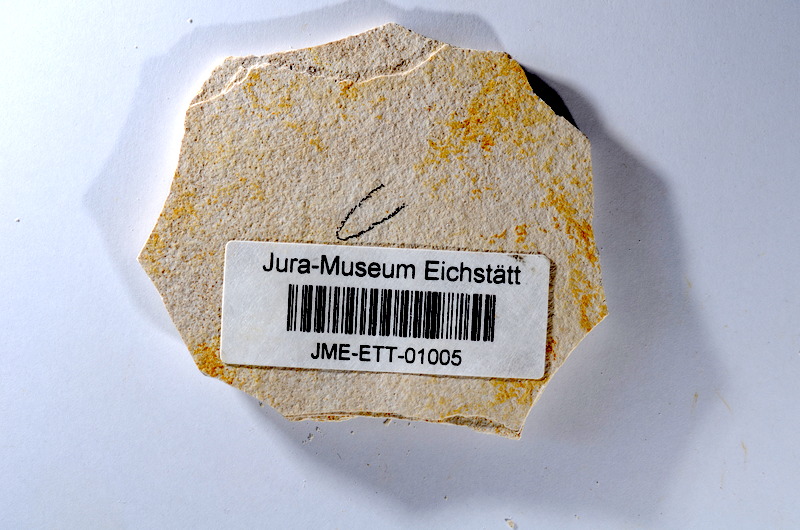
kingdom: Animalia
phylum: Chordata
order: Salmoniformes
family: Orthogonikleithridae
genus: Orthogonikleithrus
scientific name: Orthogonikleithrus hoelli
